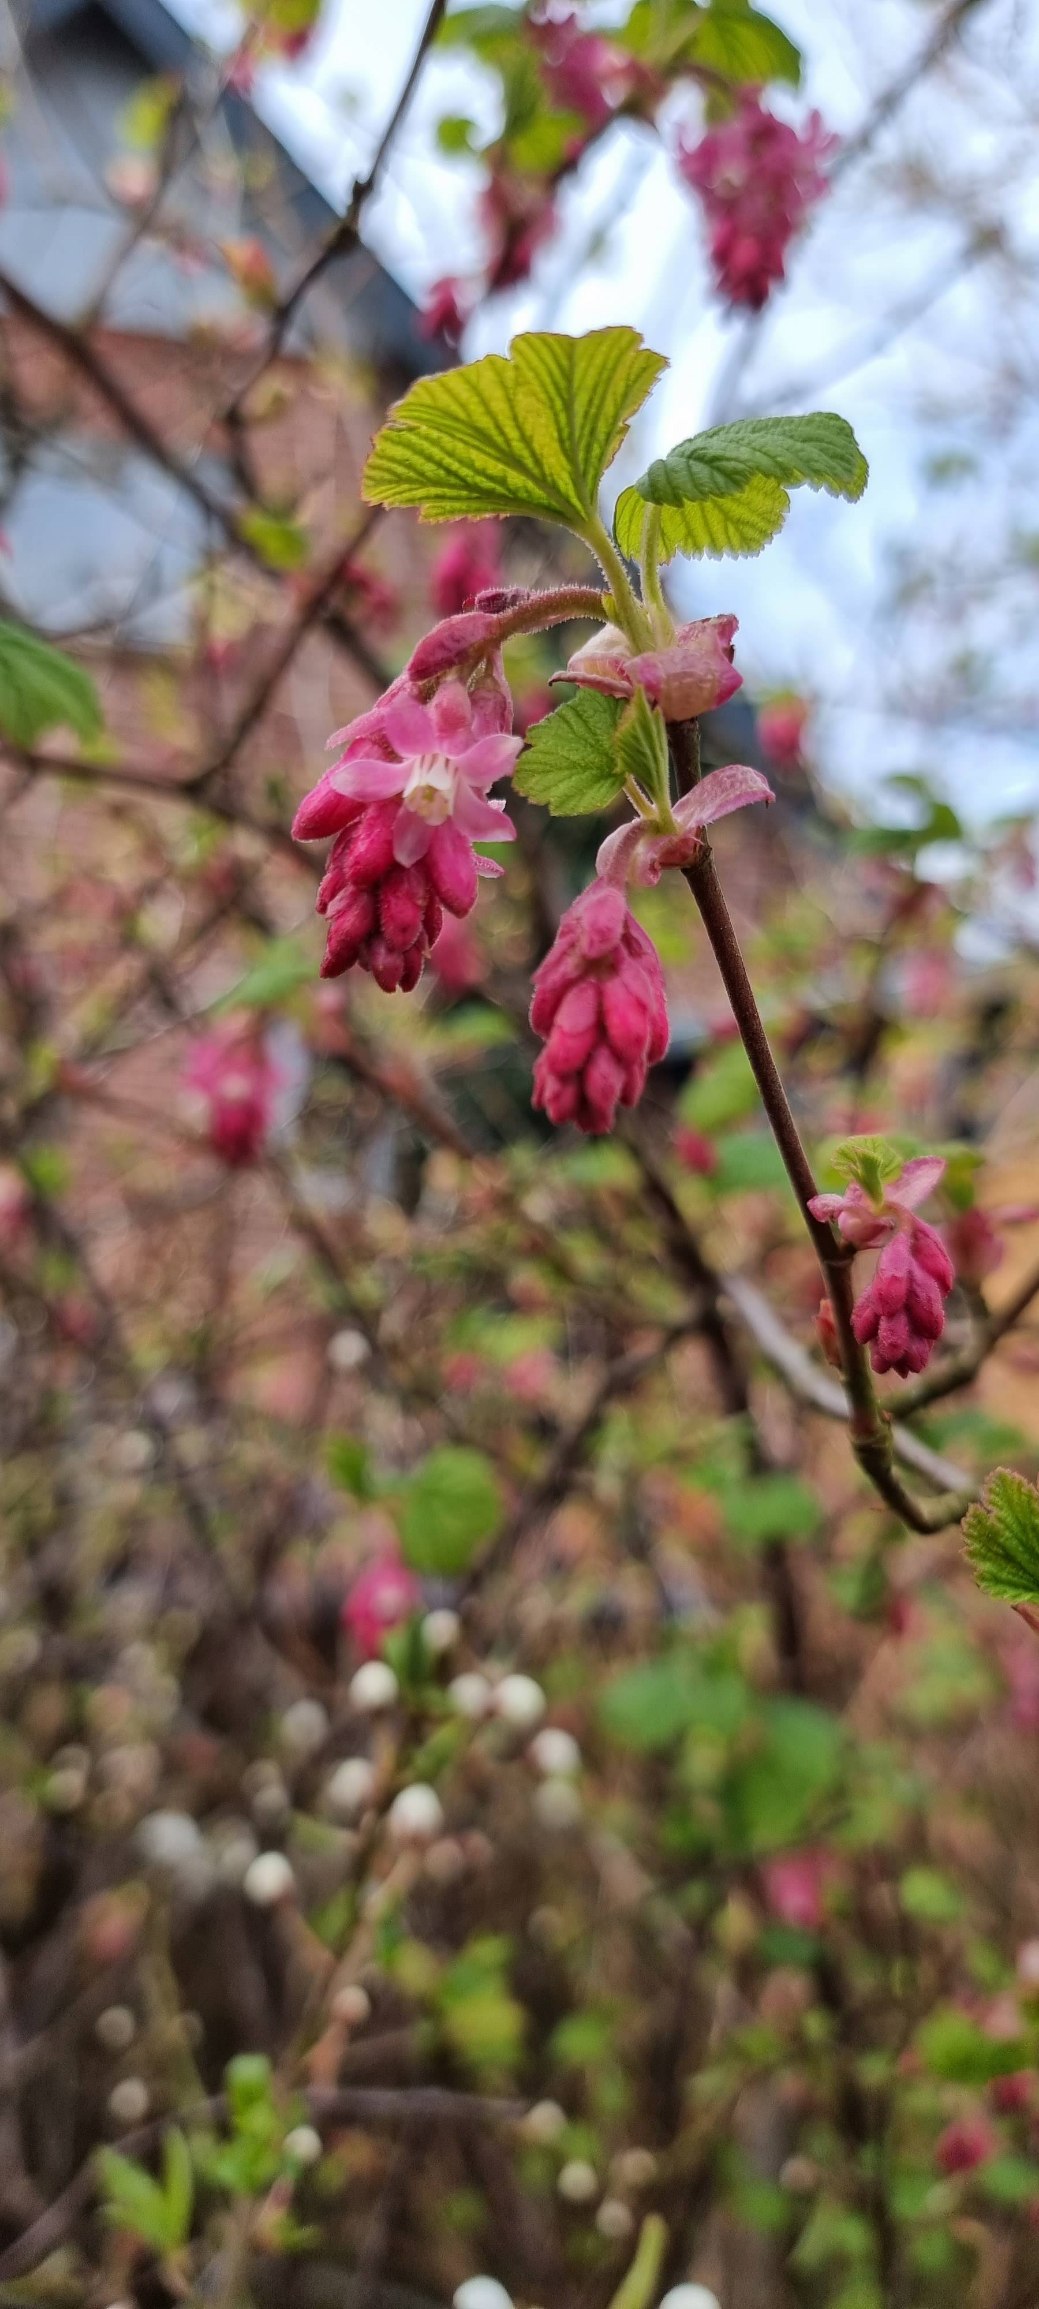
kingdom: Plantae
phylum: Tracheophyta
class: Magnoliopsida
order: Saxifragales
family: Grossulariaceae
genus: Ribes
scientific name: Ribes sanguineum
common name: Blod-ribs
